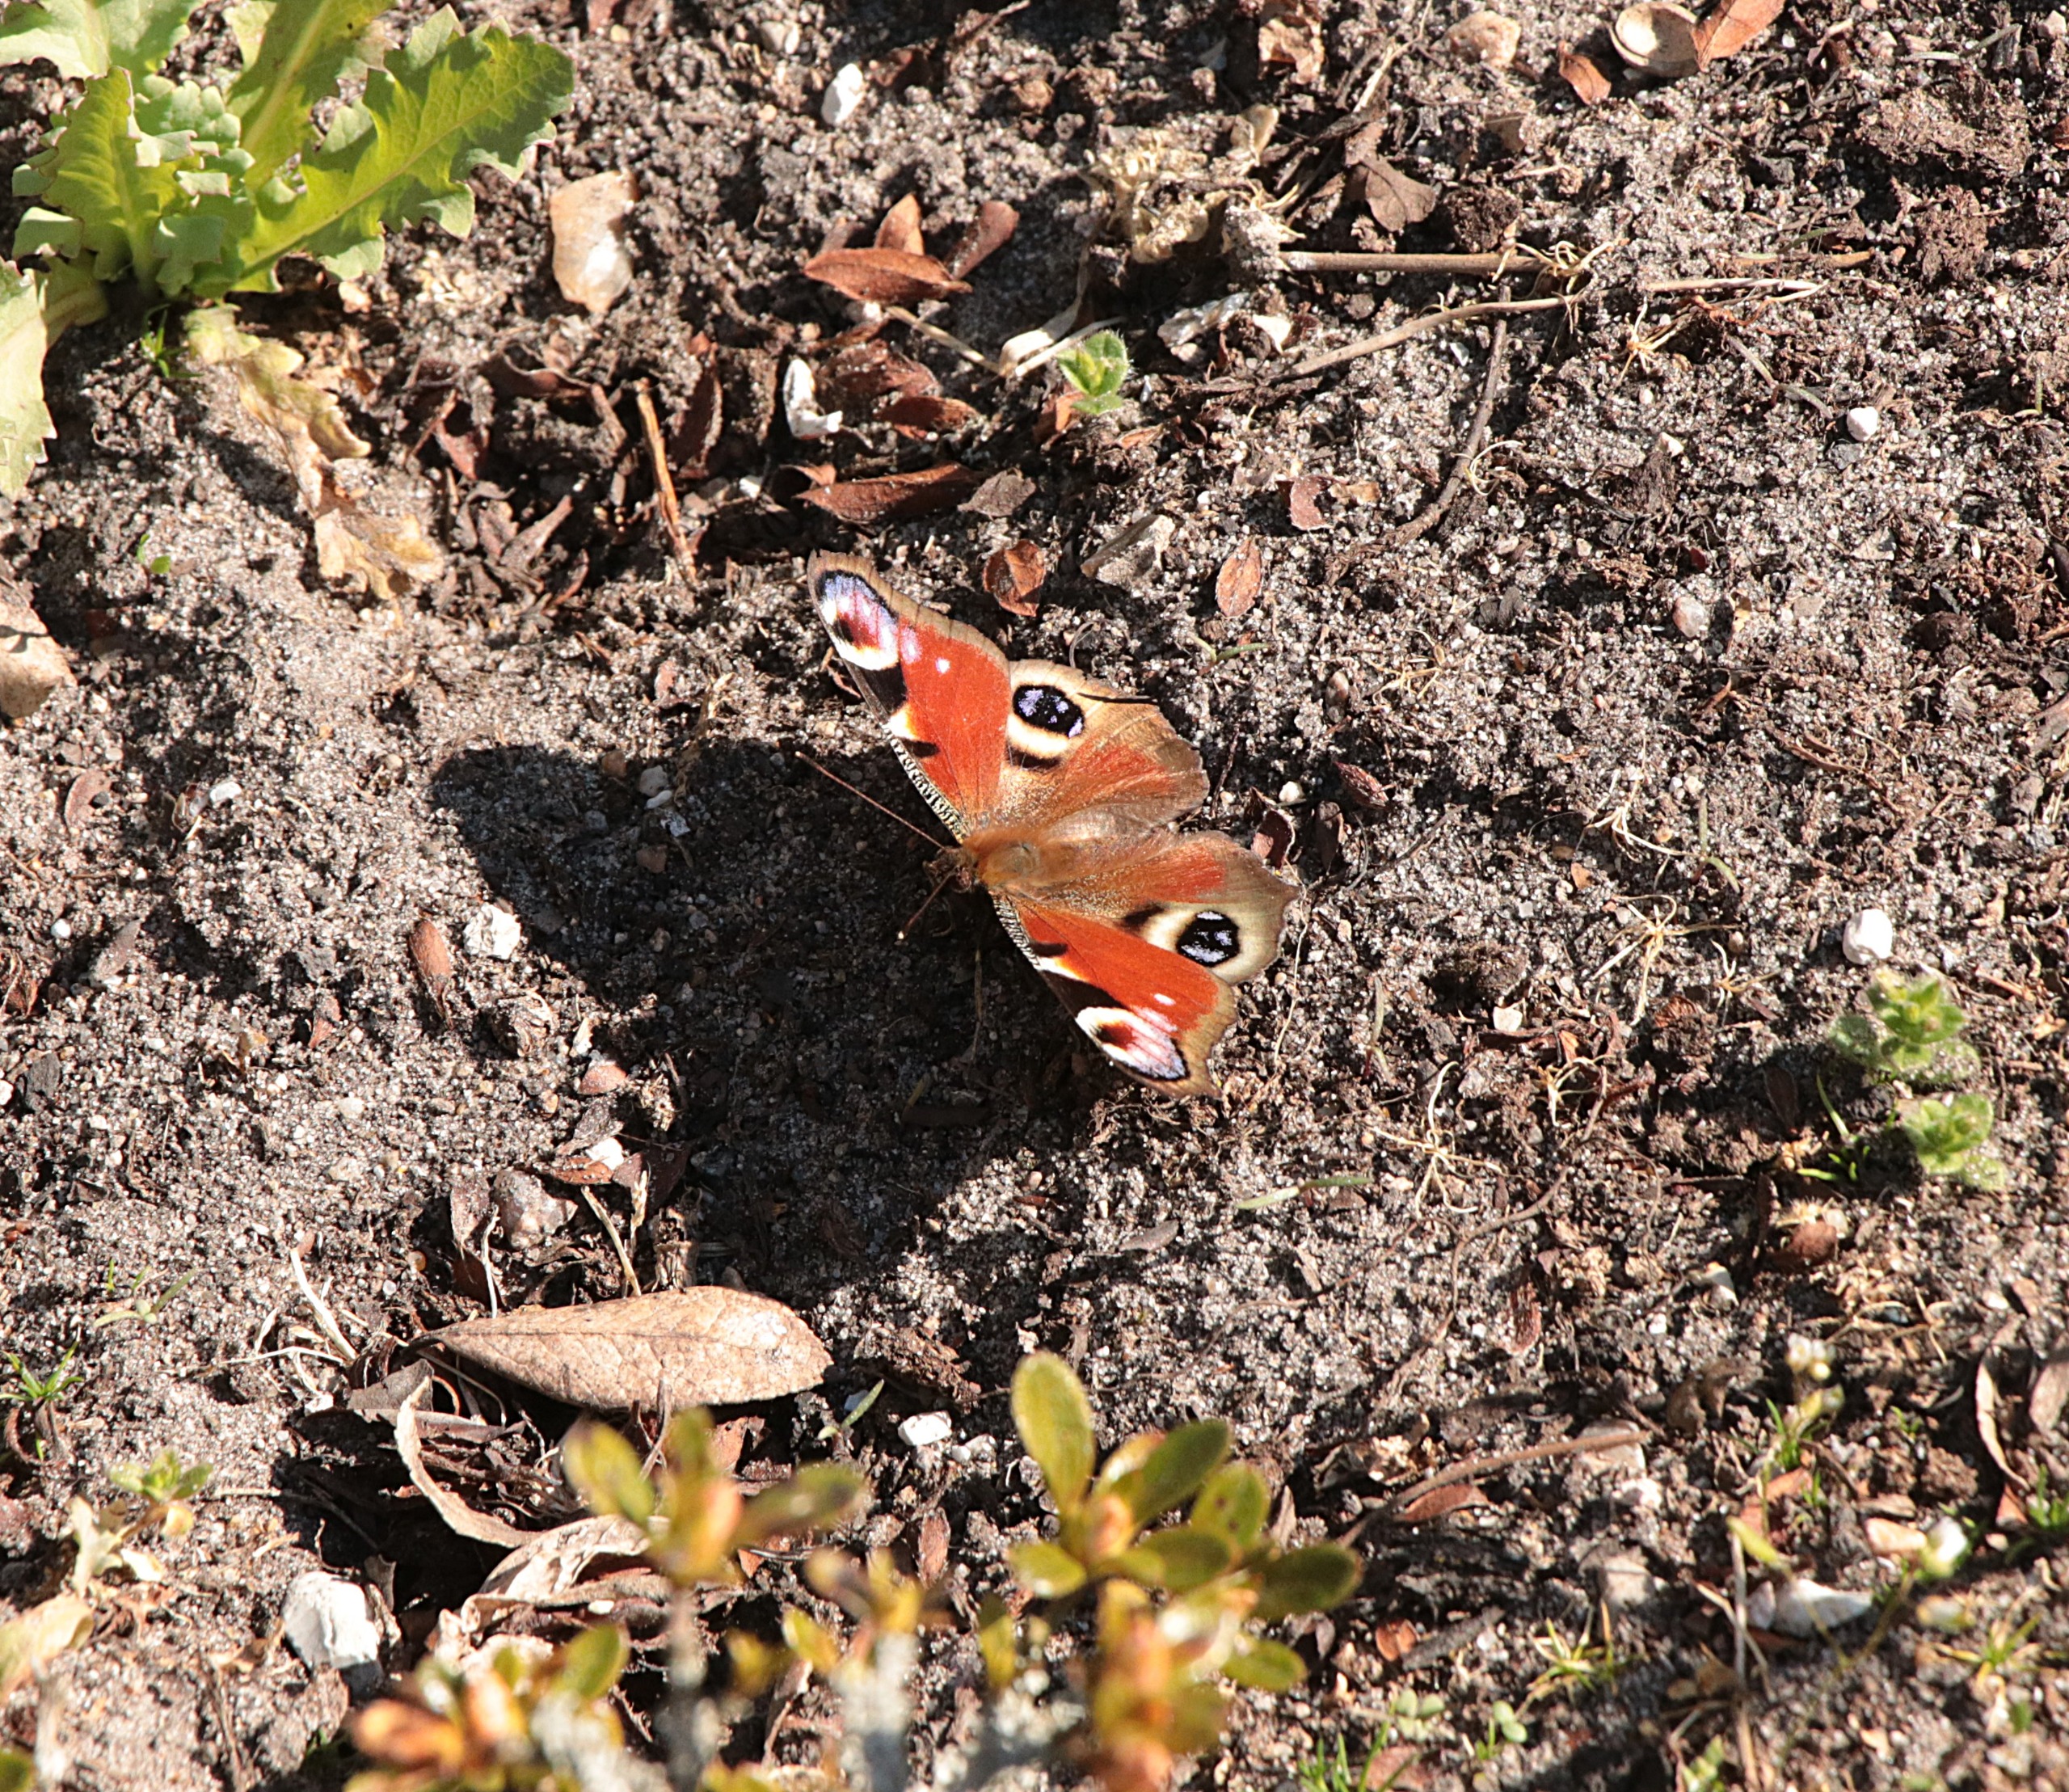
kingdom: Animalia
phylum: Arthropoda
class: Insecta
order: Lepidoptera
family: Nymphalidae
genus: Aglais
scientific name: Aglais io
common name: Dagpåfugleøje
